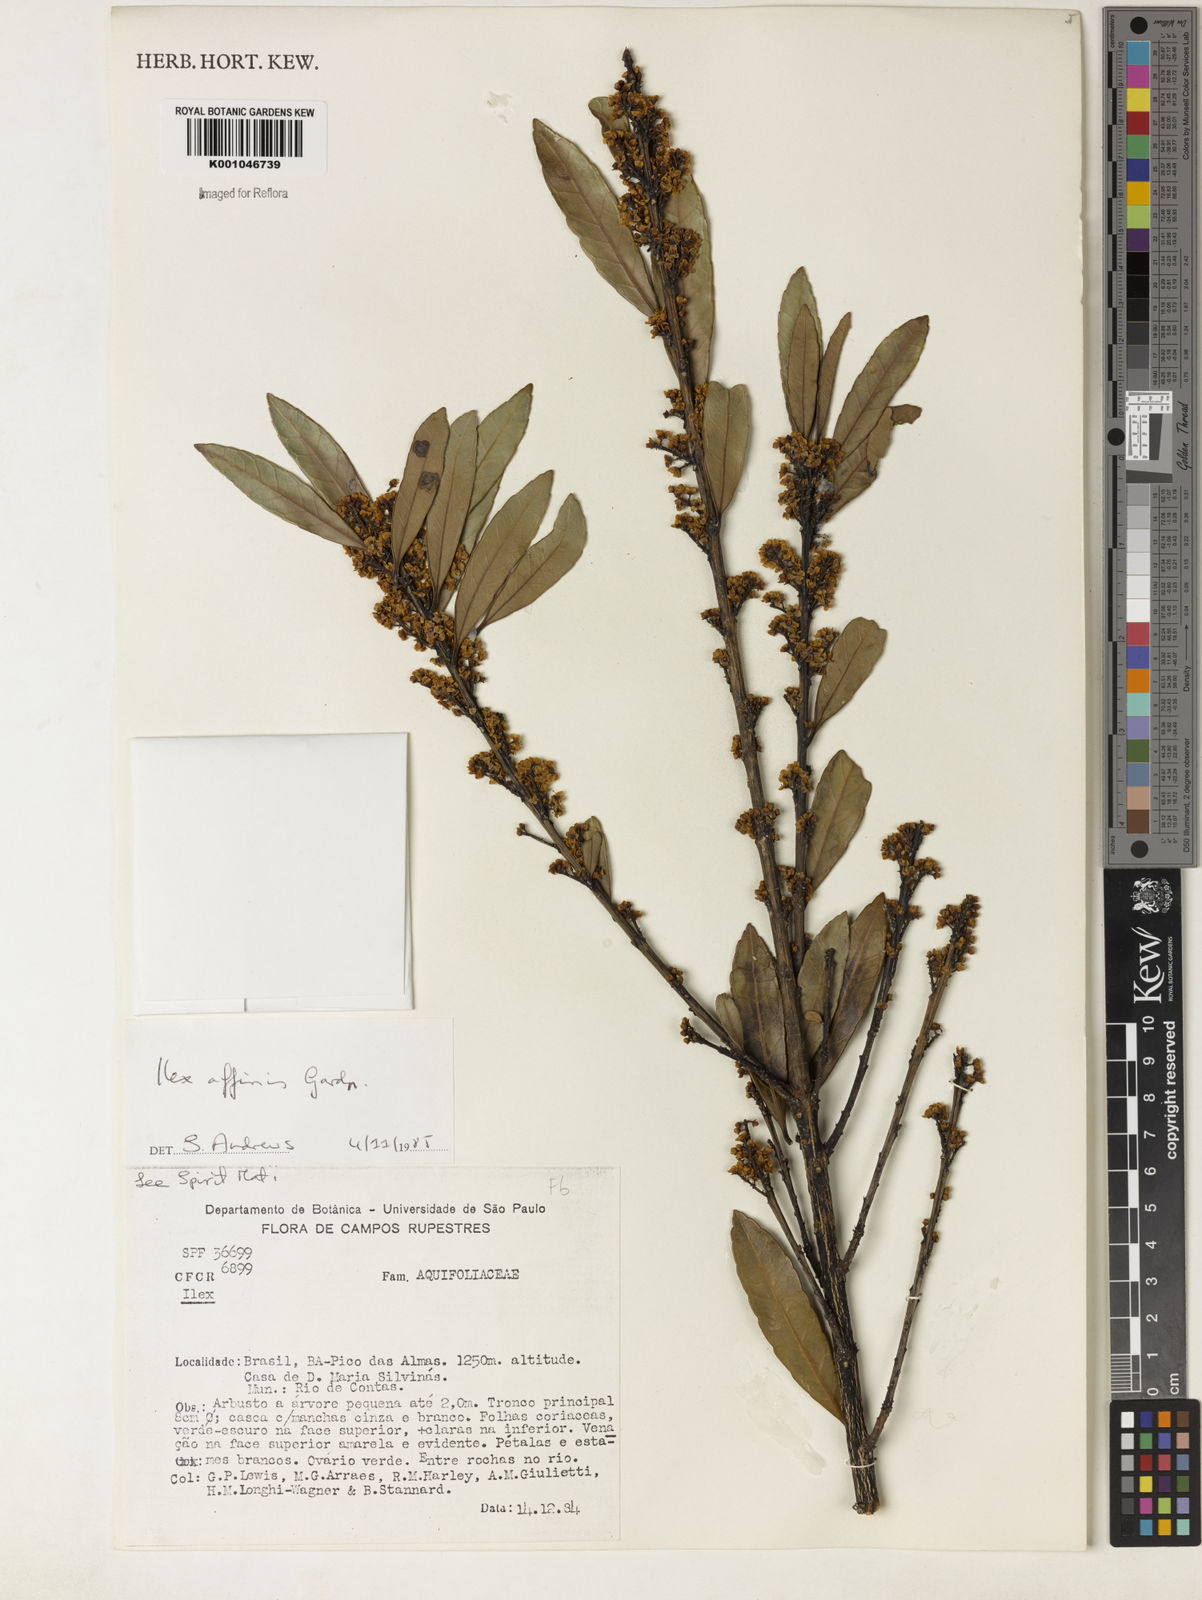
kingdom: Plantae
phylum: Tracheophyta
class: Magnoliopsida
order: Aquifoliales
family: Aquifoliaceae
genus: Ilex
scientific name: Ilex affinis
